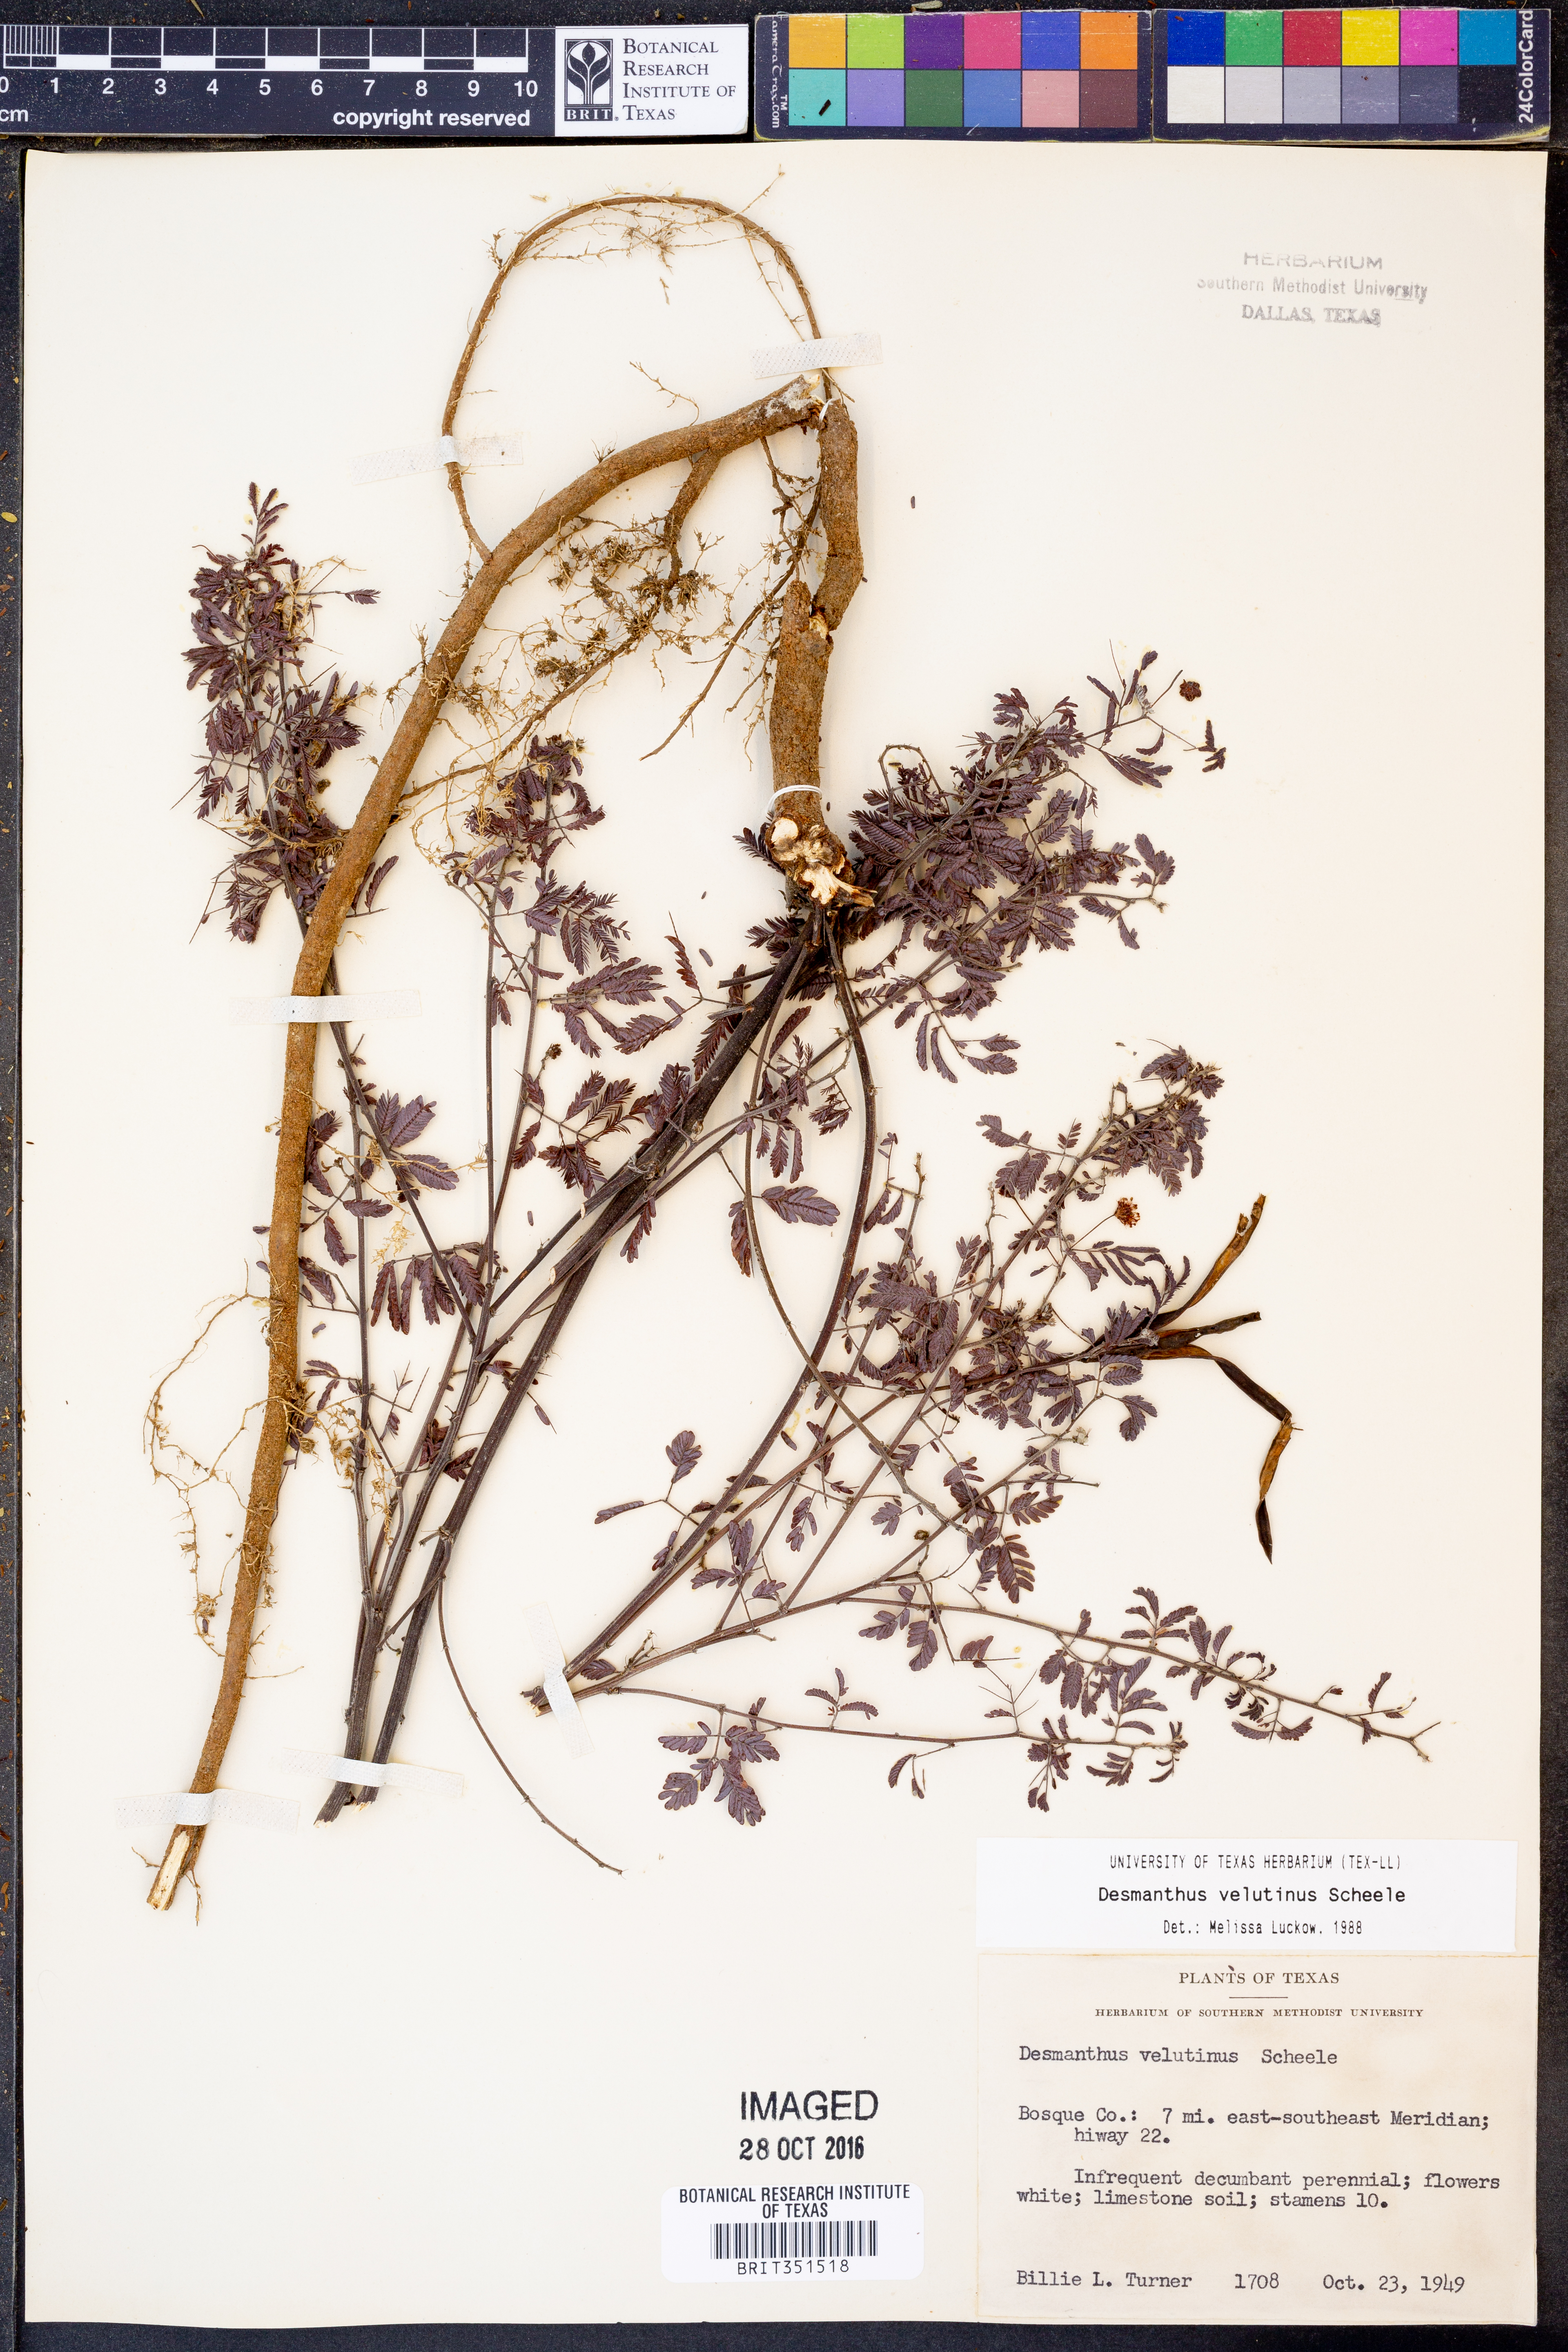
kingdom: Plantae
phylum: Tracheophyta
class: Magnoliopsida
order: Fabales
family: Fabaceae
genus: Desmanthus
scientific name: Desmanthus velutinus
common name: Velvet bundle-flower
